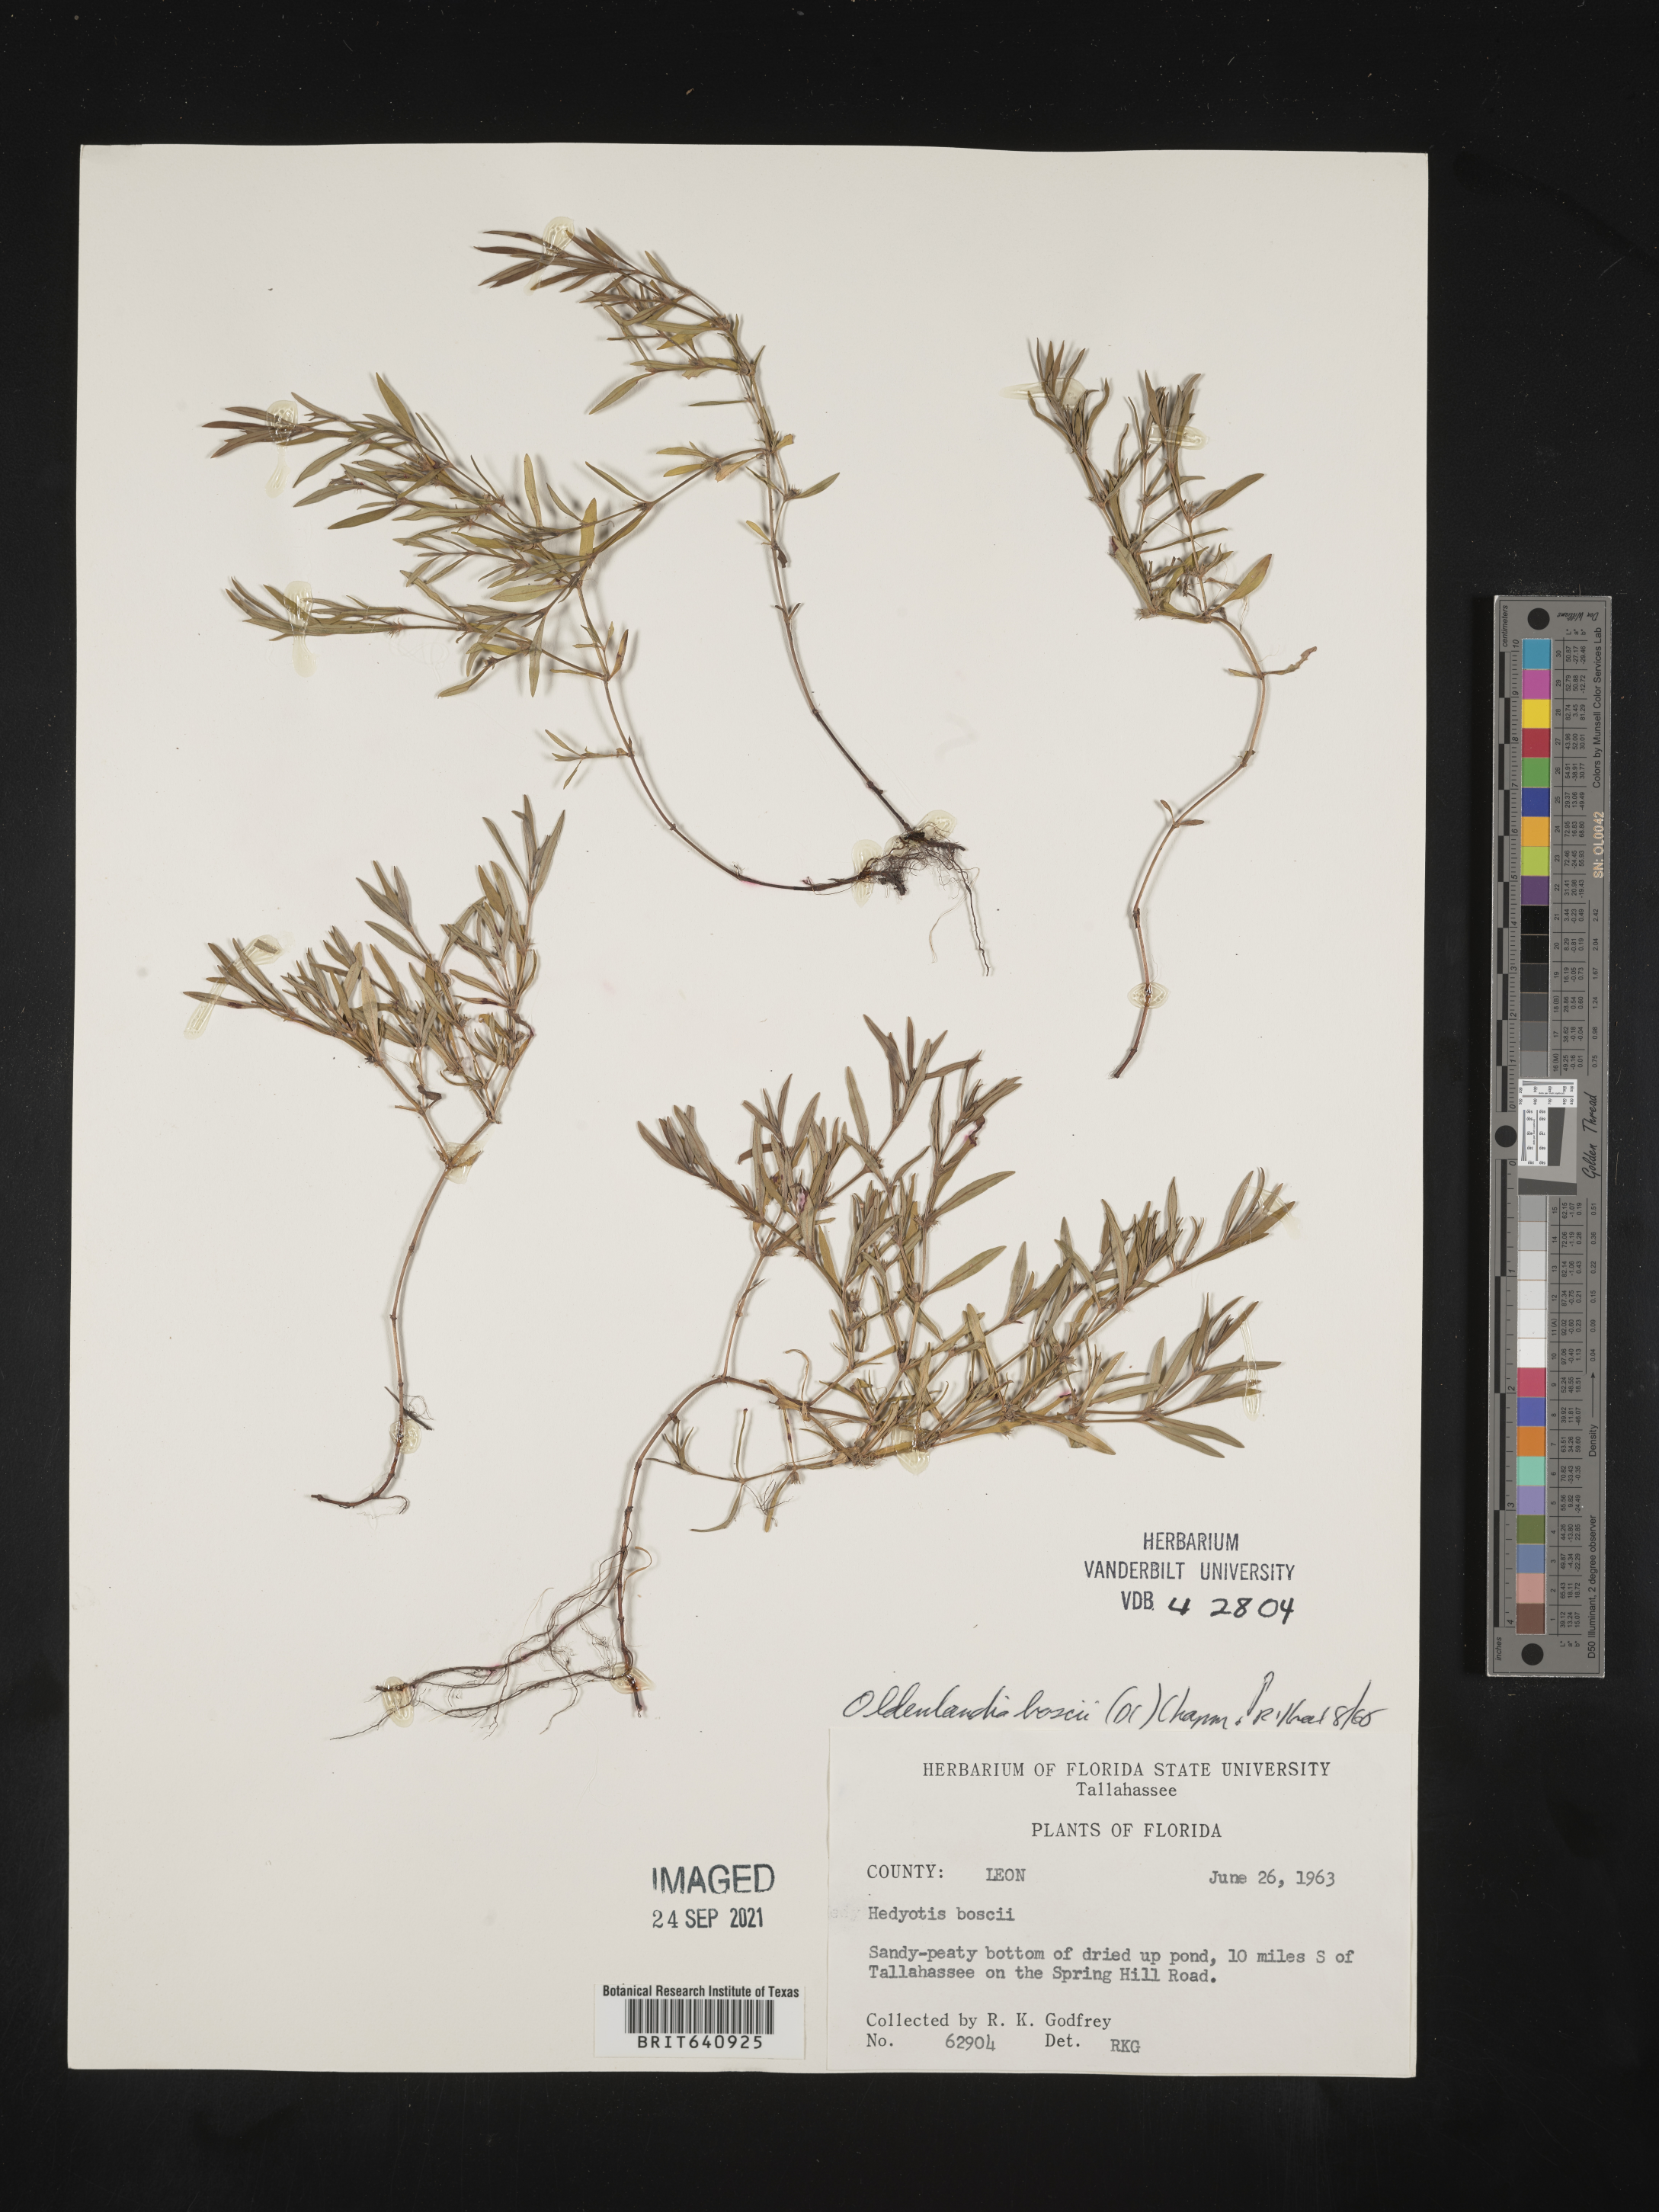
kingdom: Plantae
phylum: Tracheophyta
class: Magnoliopsida
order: Gentianales
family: Rubiaceae
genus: Oldenlandia
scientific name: Oldenlandia boscii
